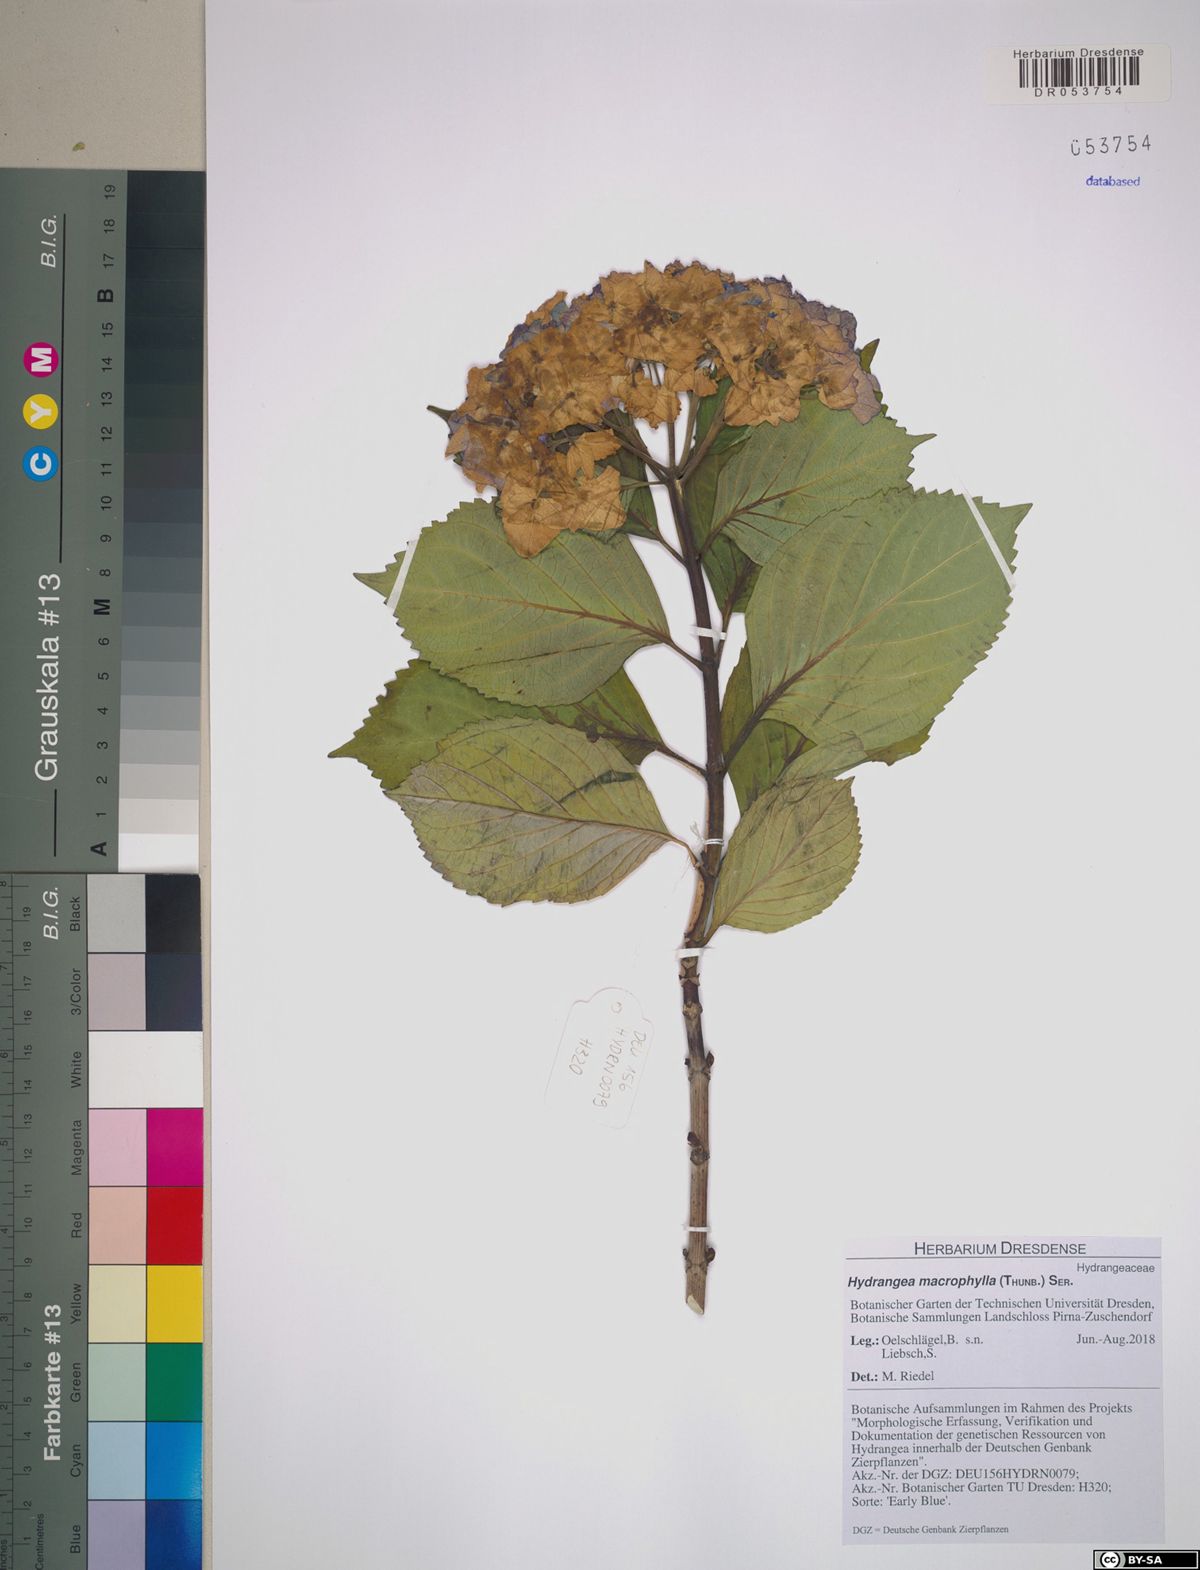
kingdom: Plantae
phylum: Tracheophyta
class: Magnoliopsida
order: Cornales
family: Hydrangeaceae
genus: Hydrangea
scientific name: Hydrangea macrophylla
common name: Hydrangea
